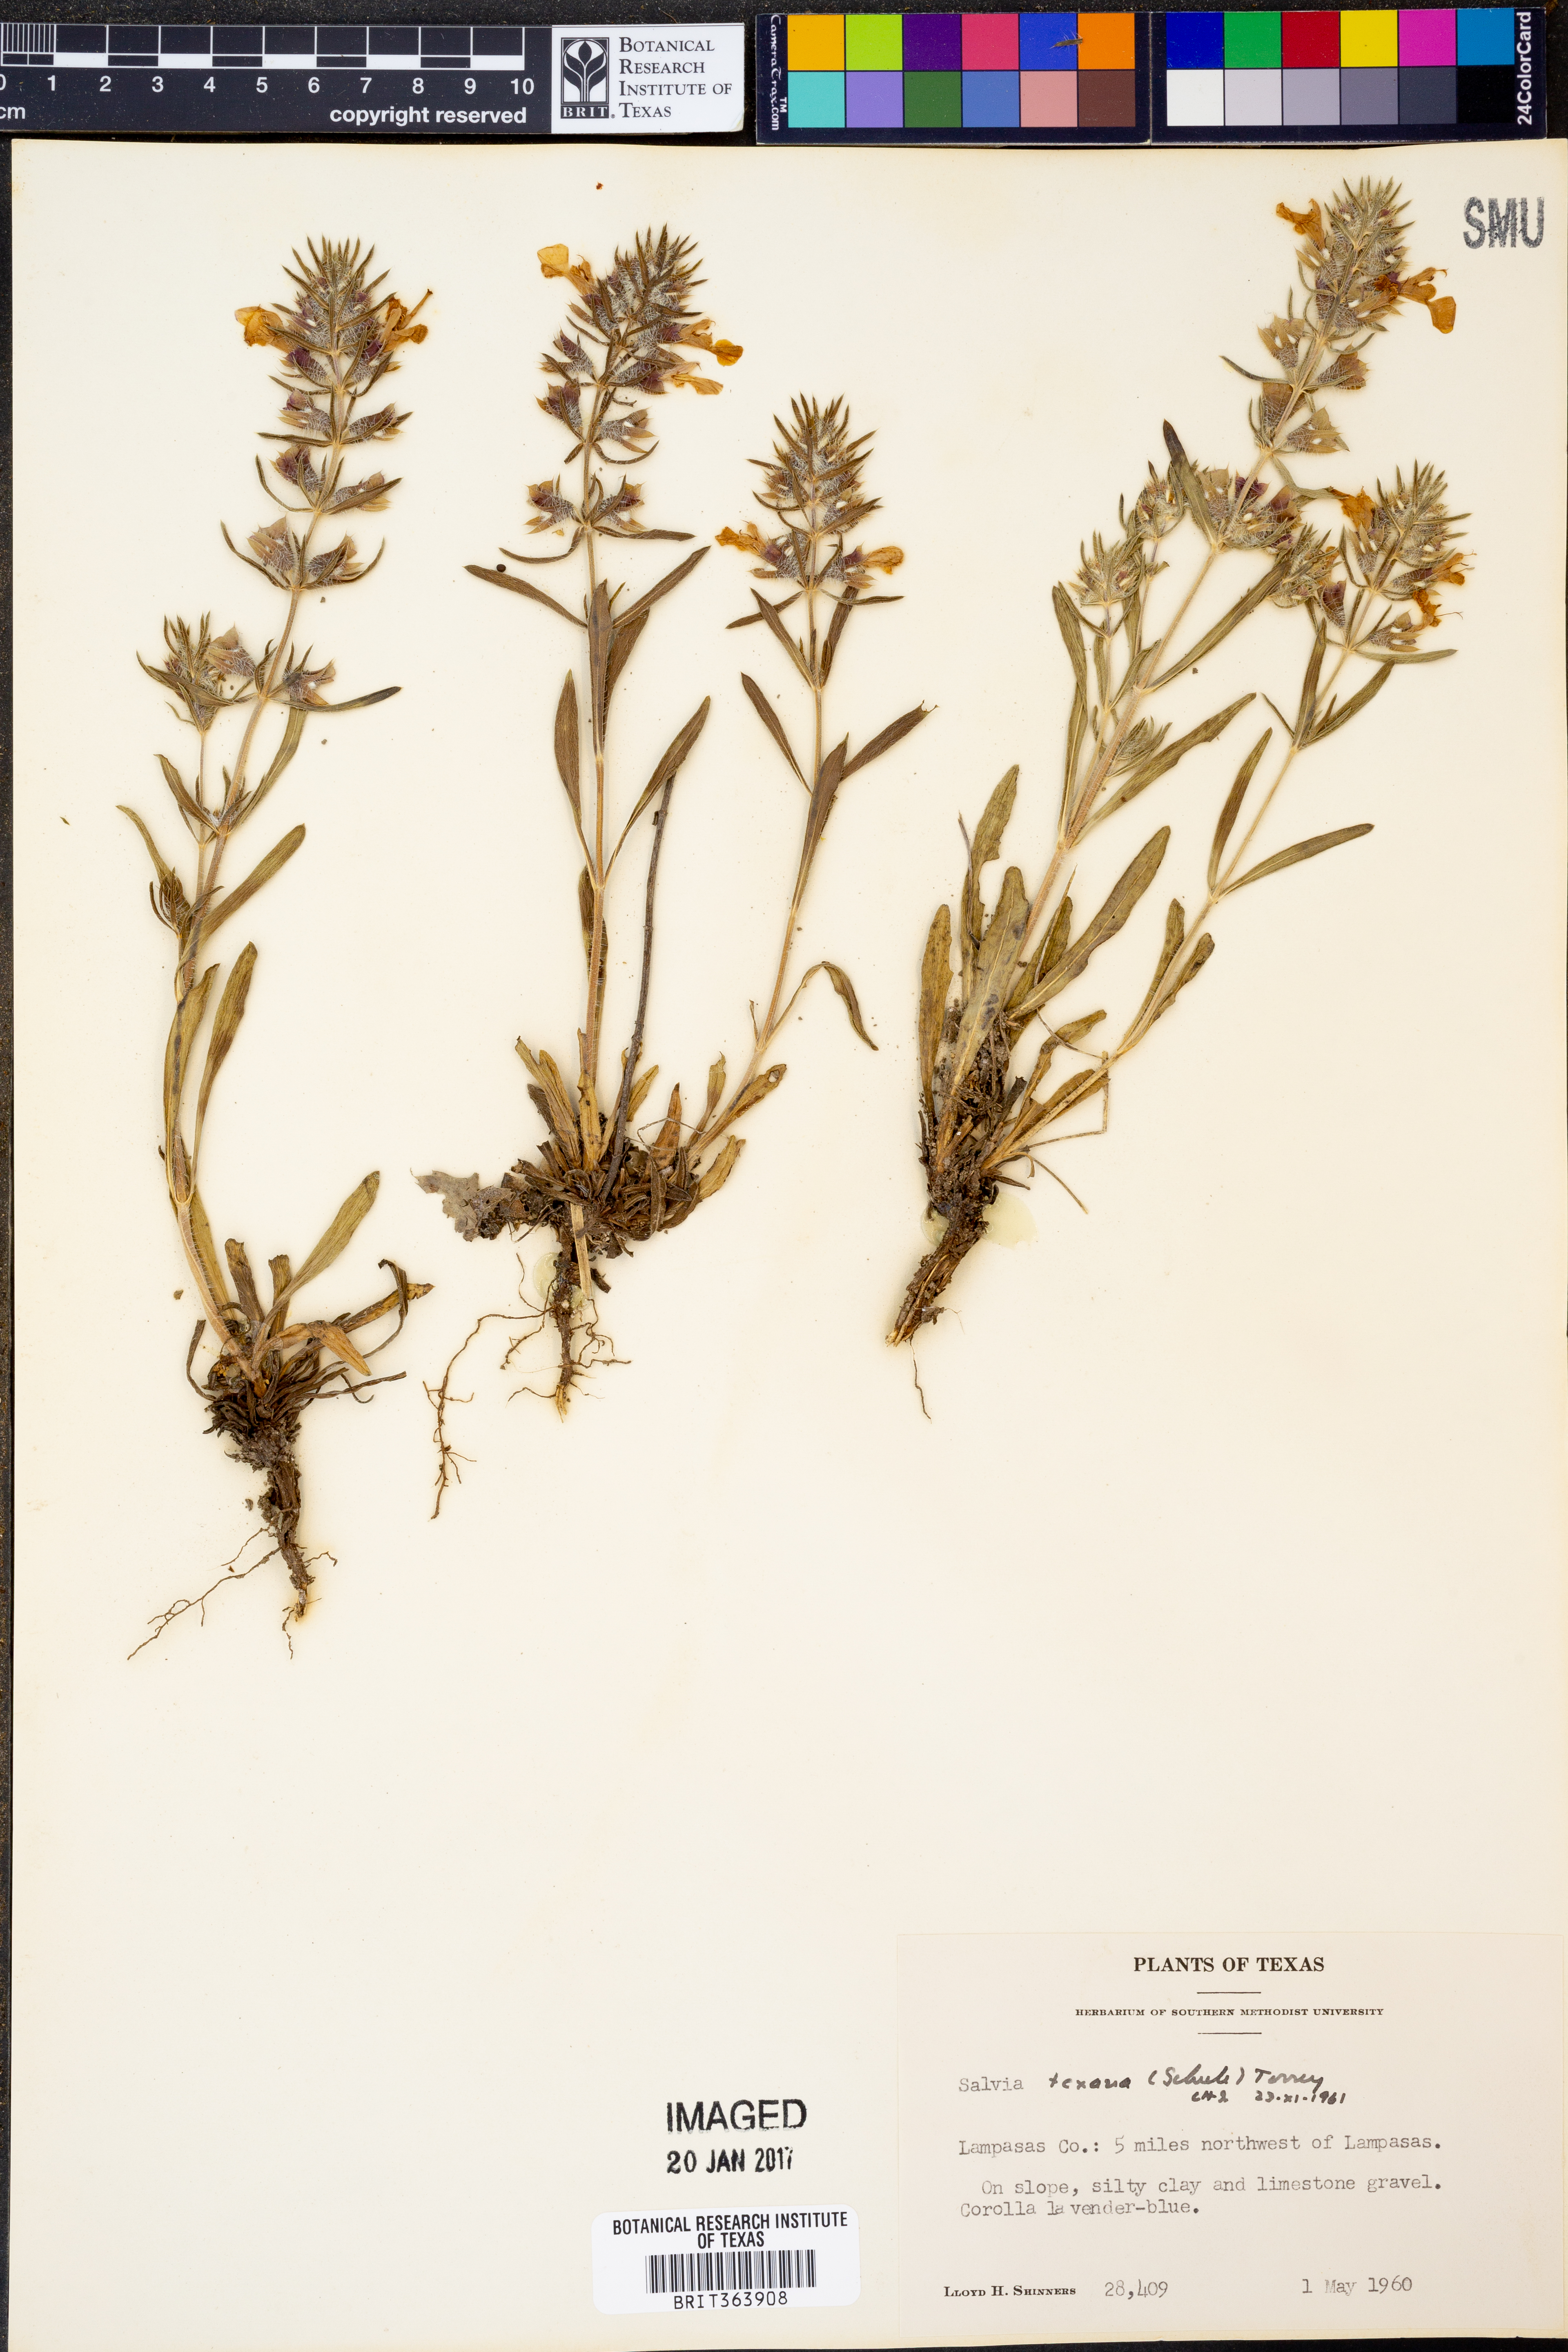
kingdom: Plantae
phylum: Tracheophyta
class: Magnoliopsida
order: Lamiales
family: Lamiaceae
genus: Salvia
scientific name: Salvia texana
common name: Texas sage
